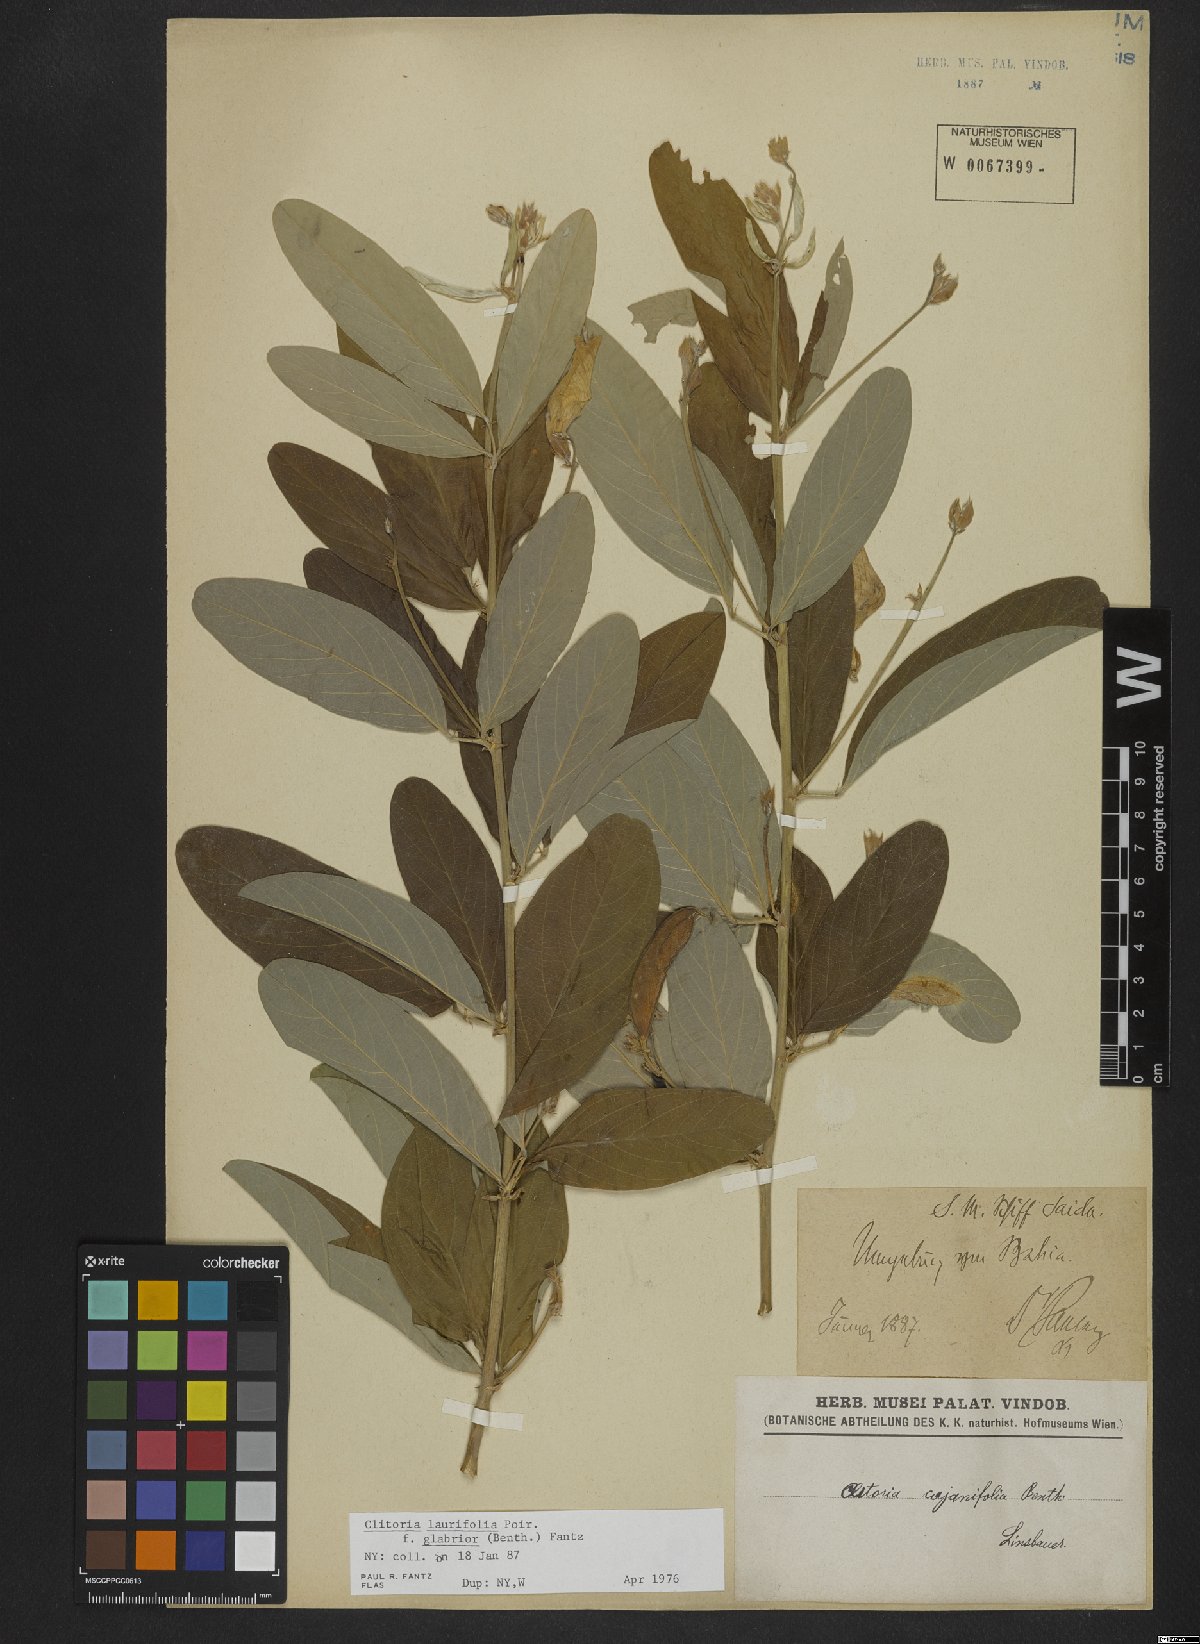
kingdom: Plantae
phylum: Tracheophyta
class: Magnoliopsida
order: Fabales
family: Fabaceae
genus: Clitoria
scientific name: Clitoria laurifolia
